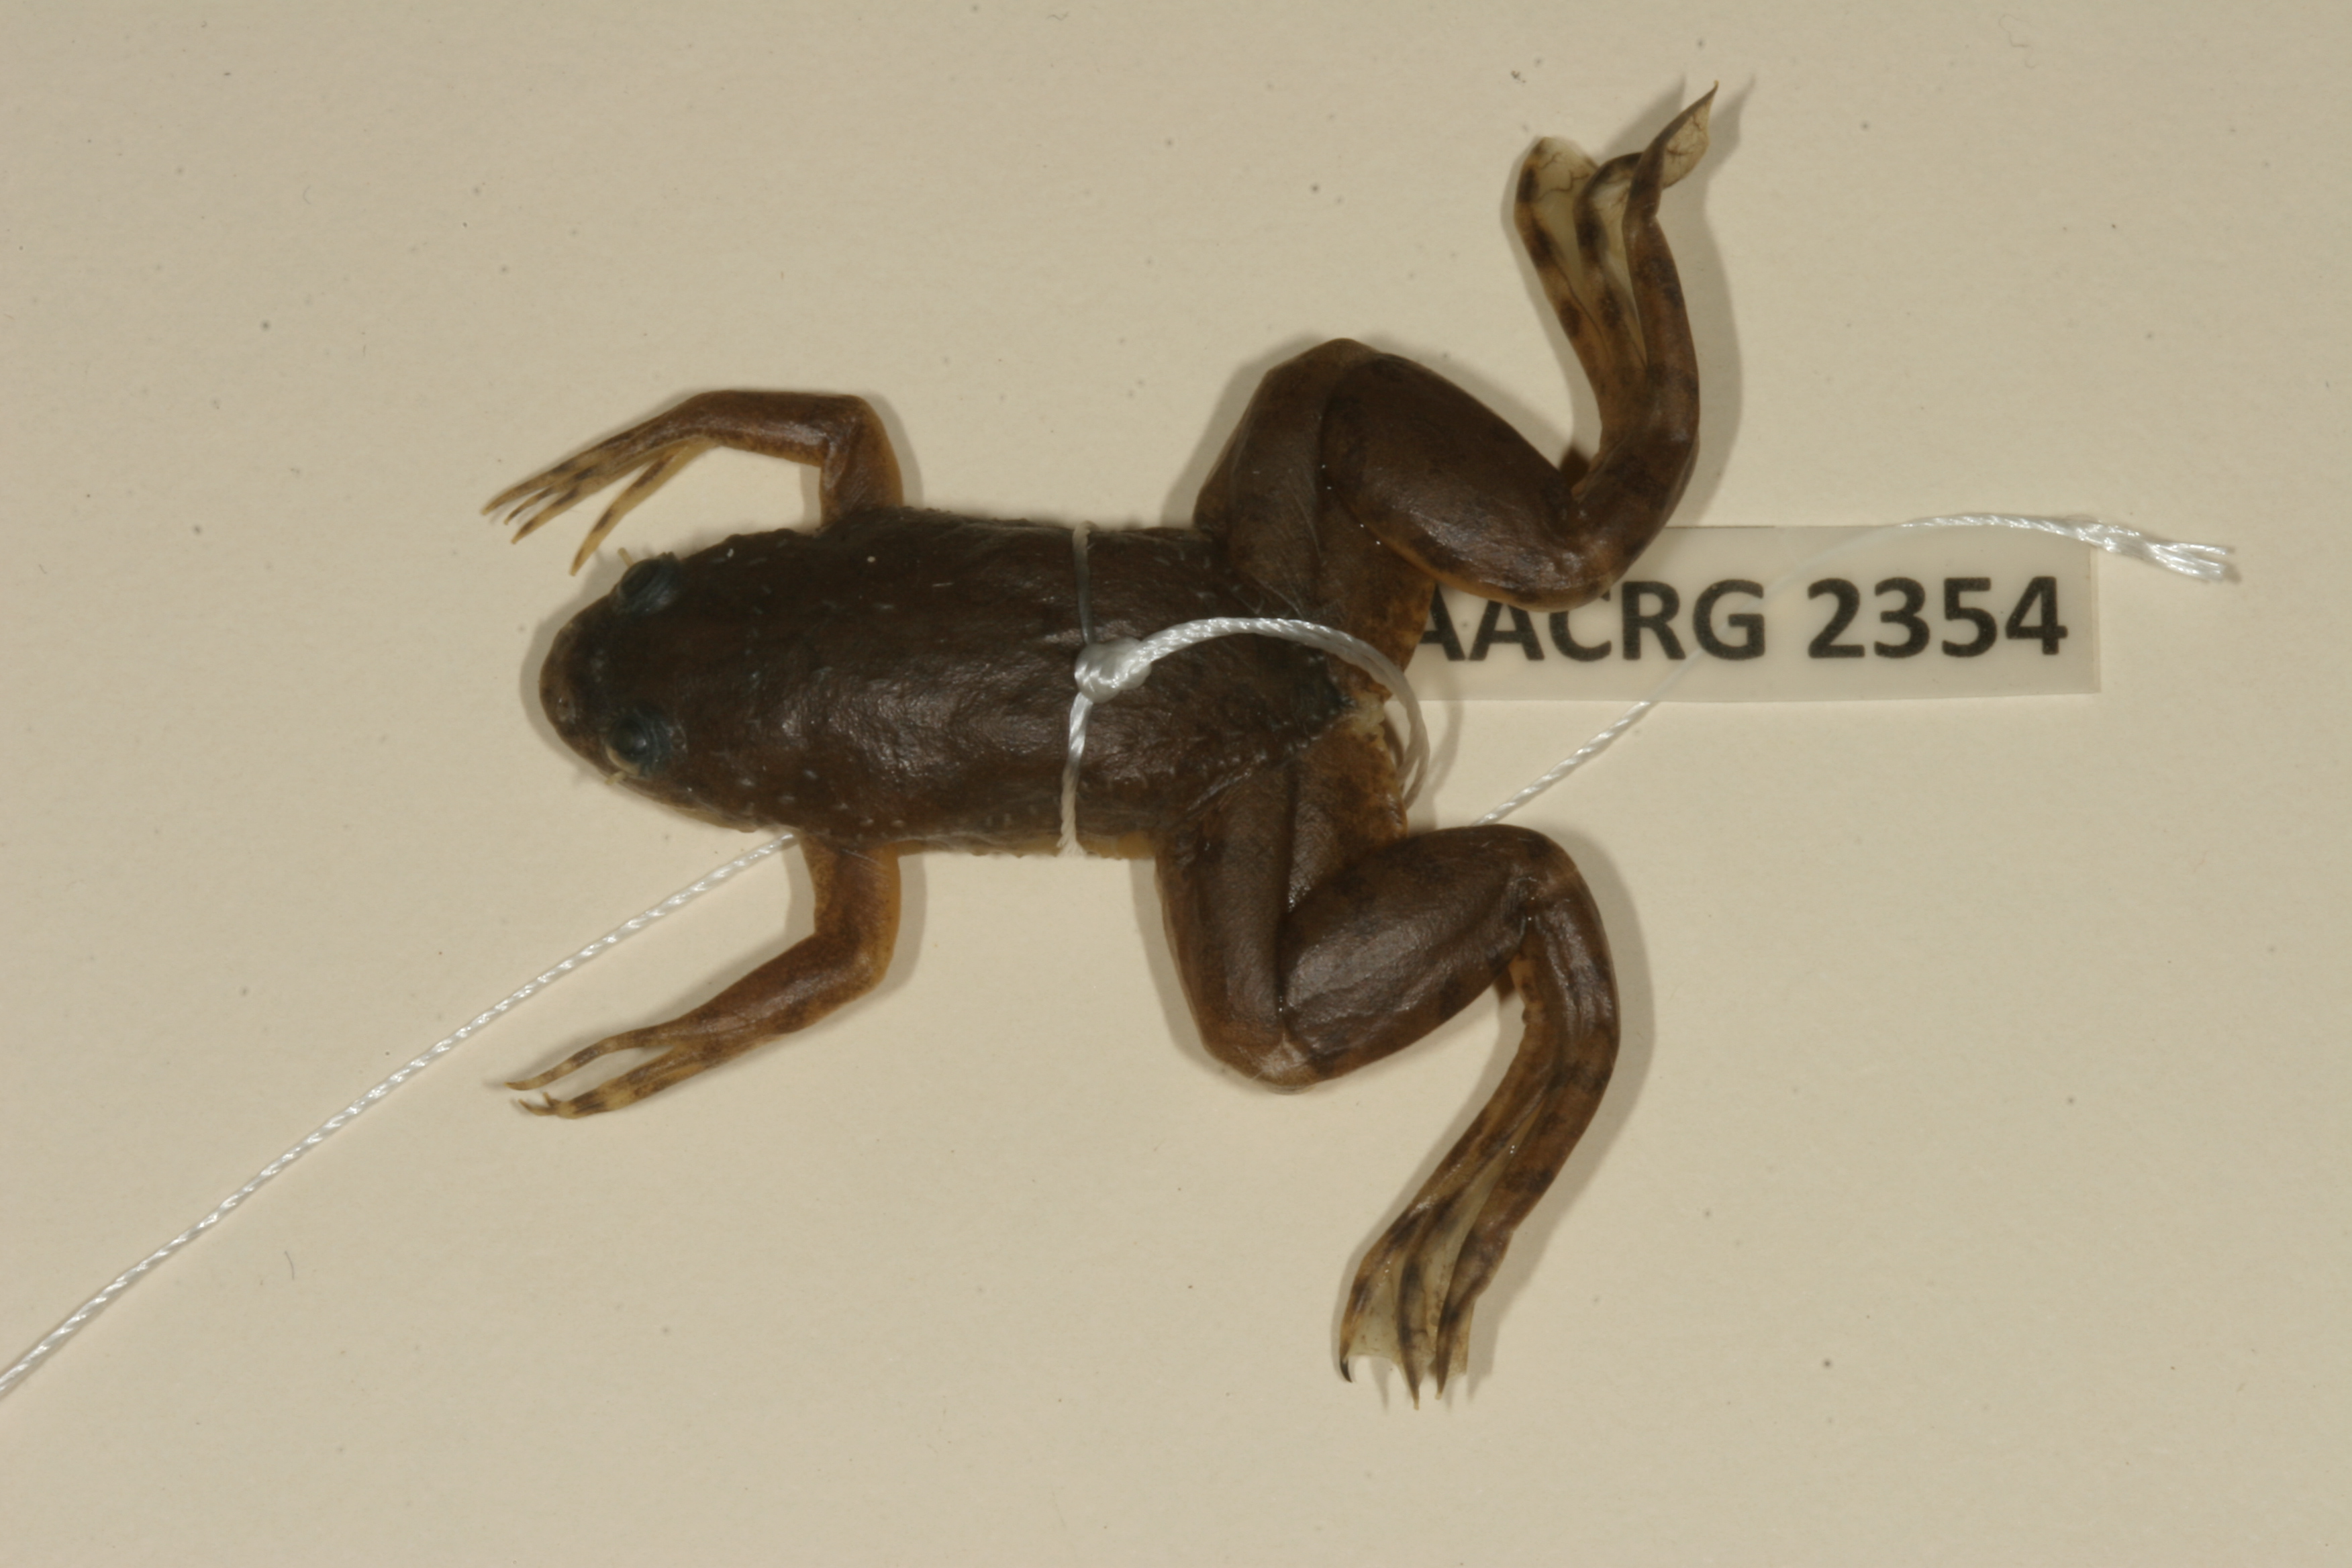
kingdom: Animalia
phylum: Chordata
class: Amphibia
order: Anura
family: Pipidae
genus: Xenopus
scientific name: Xenopus muelleri
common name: Muller's clawed frog
